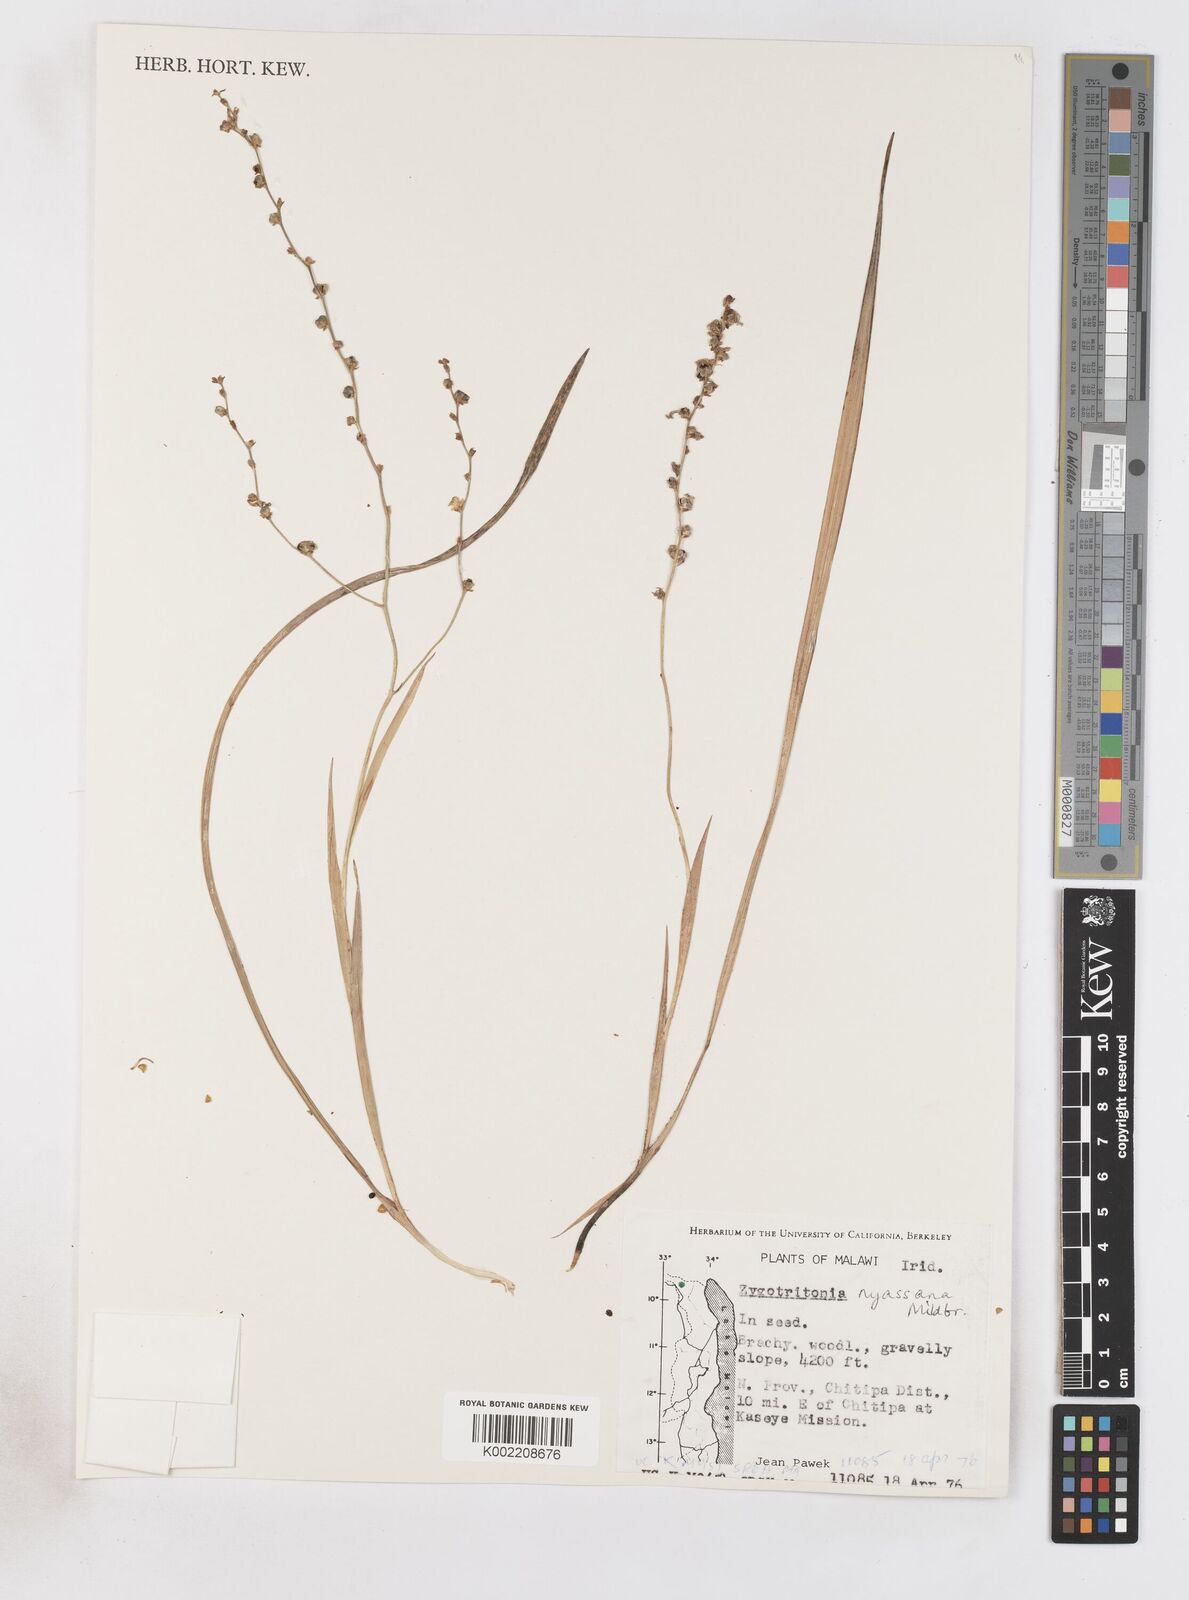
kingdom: Plantae
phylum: Tracheophyta
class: Liliopsida
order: Asparagales
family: Iridaceae
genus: Zygotritonia
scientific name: Zygotritonia nyassana
